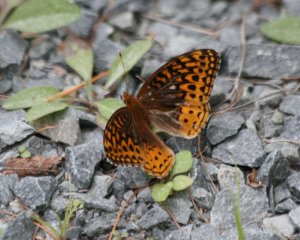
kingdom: Animalia
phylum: Arthropoda
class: Insecta
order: Lepidoptera
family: Nymphalidae
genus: Speyeria
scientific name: Speyeria cybele
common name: Great Spangled Fritillary
